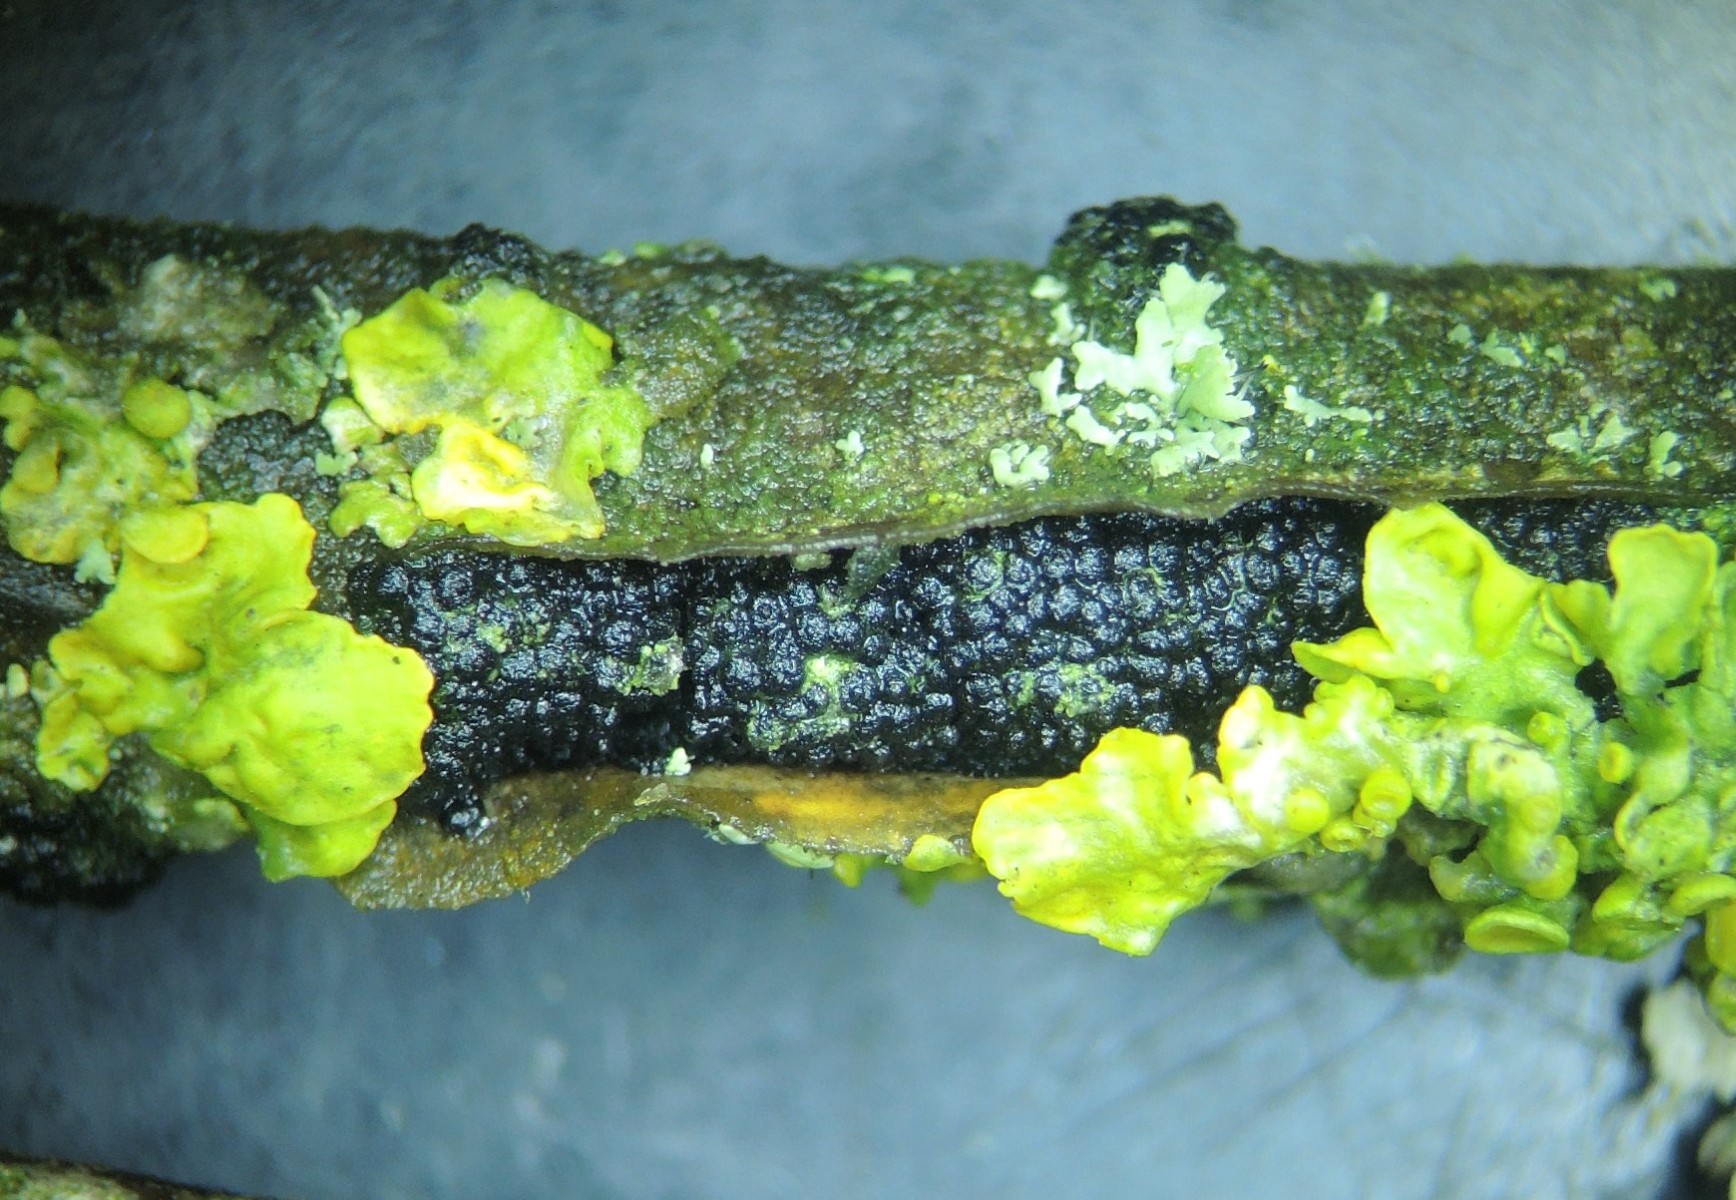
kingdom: Fungi
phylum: Ascomycota
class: Dothideomycetes
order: Pleosporales
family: Camarosporidiellaceae
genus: Camarosporidiella
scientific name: Camarosporidiella laburni
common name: guldregn-tykbær
